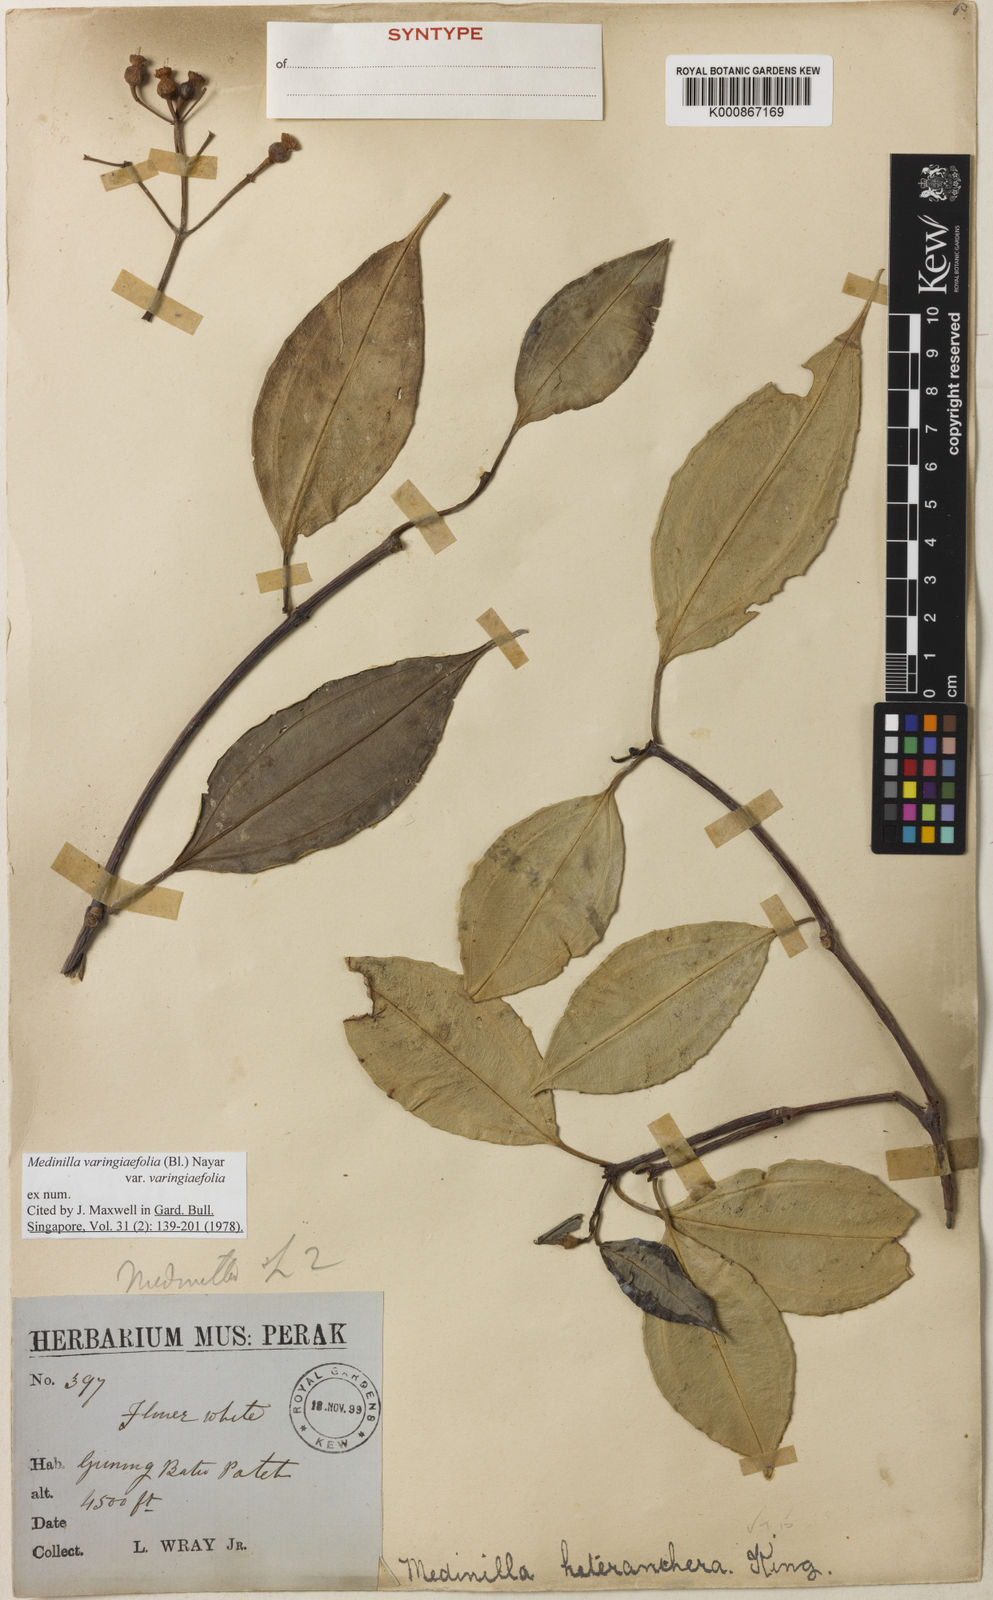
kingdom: Plantae
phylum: Tracheophyta
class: Magnoliopsida
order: Myrtales
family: Melastomataceae
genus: Pachycentria
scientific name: Pachycentria varingiaefolia
